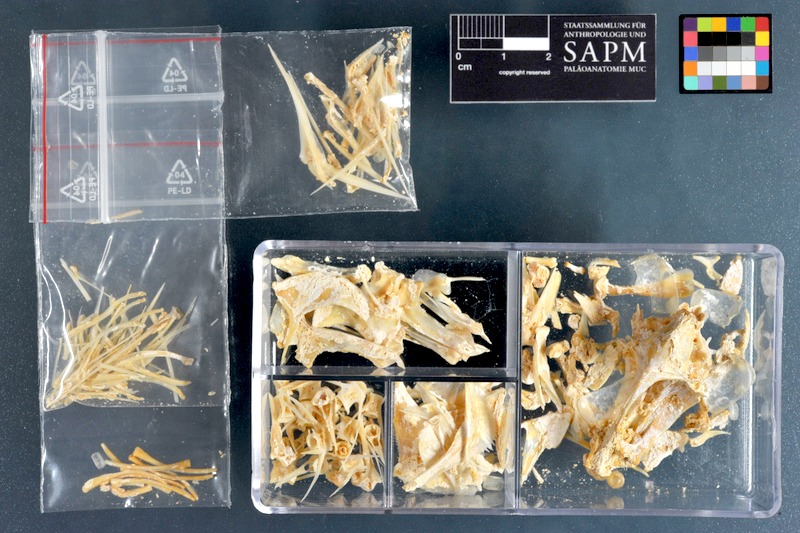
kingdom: Animalia
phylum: Chordata
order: Perciformes
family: Lutjanidae
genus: Lutjanus
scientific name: Lutjanus lutjanus
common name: Bigeye snapper
